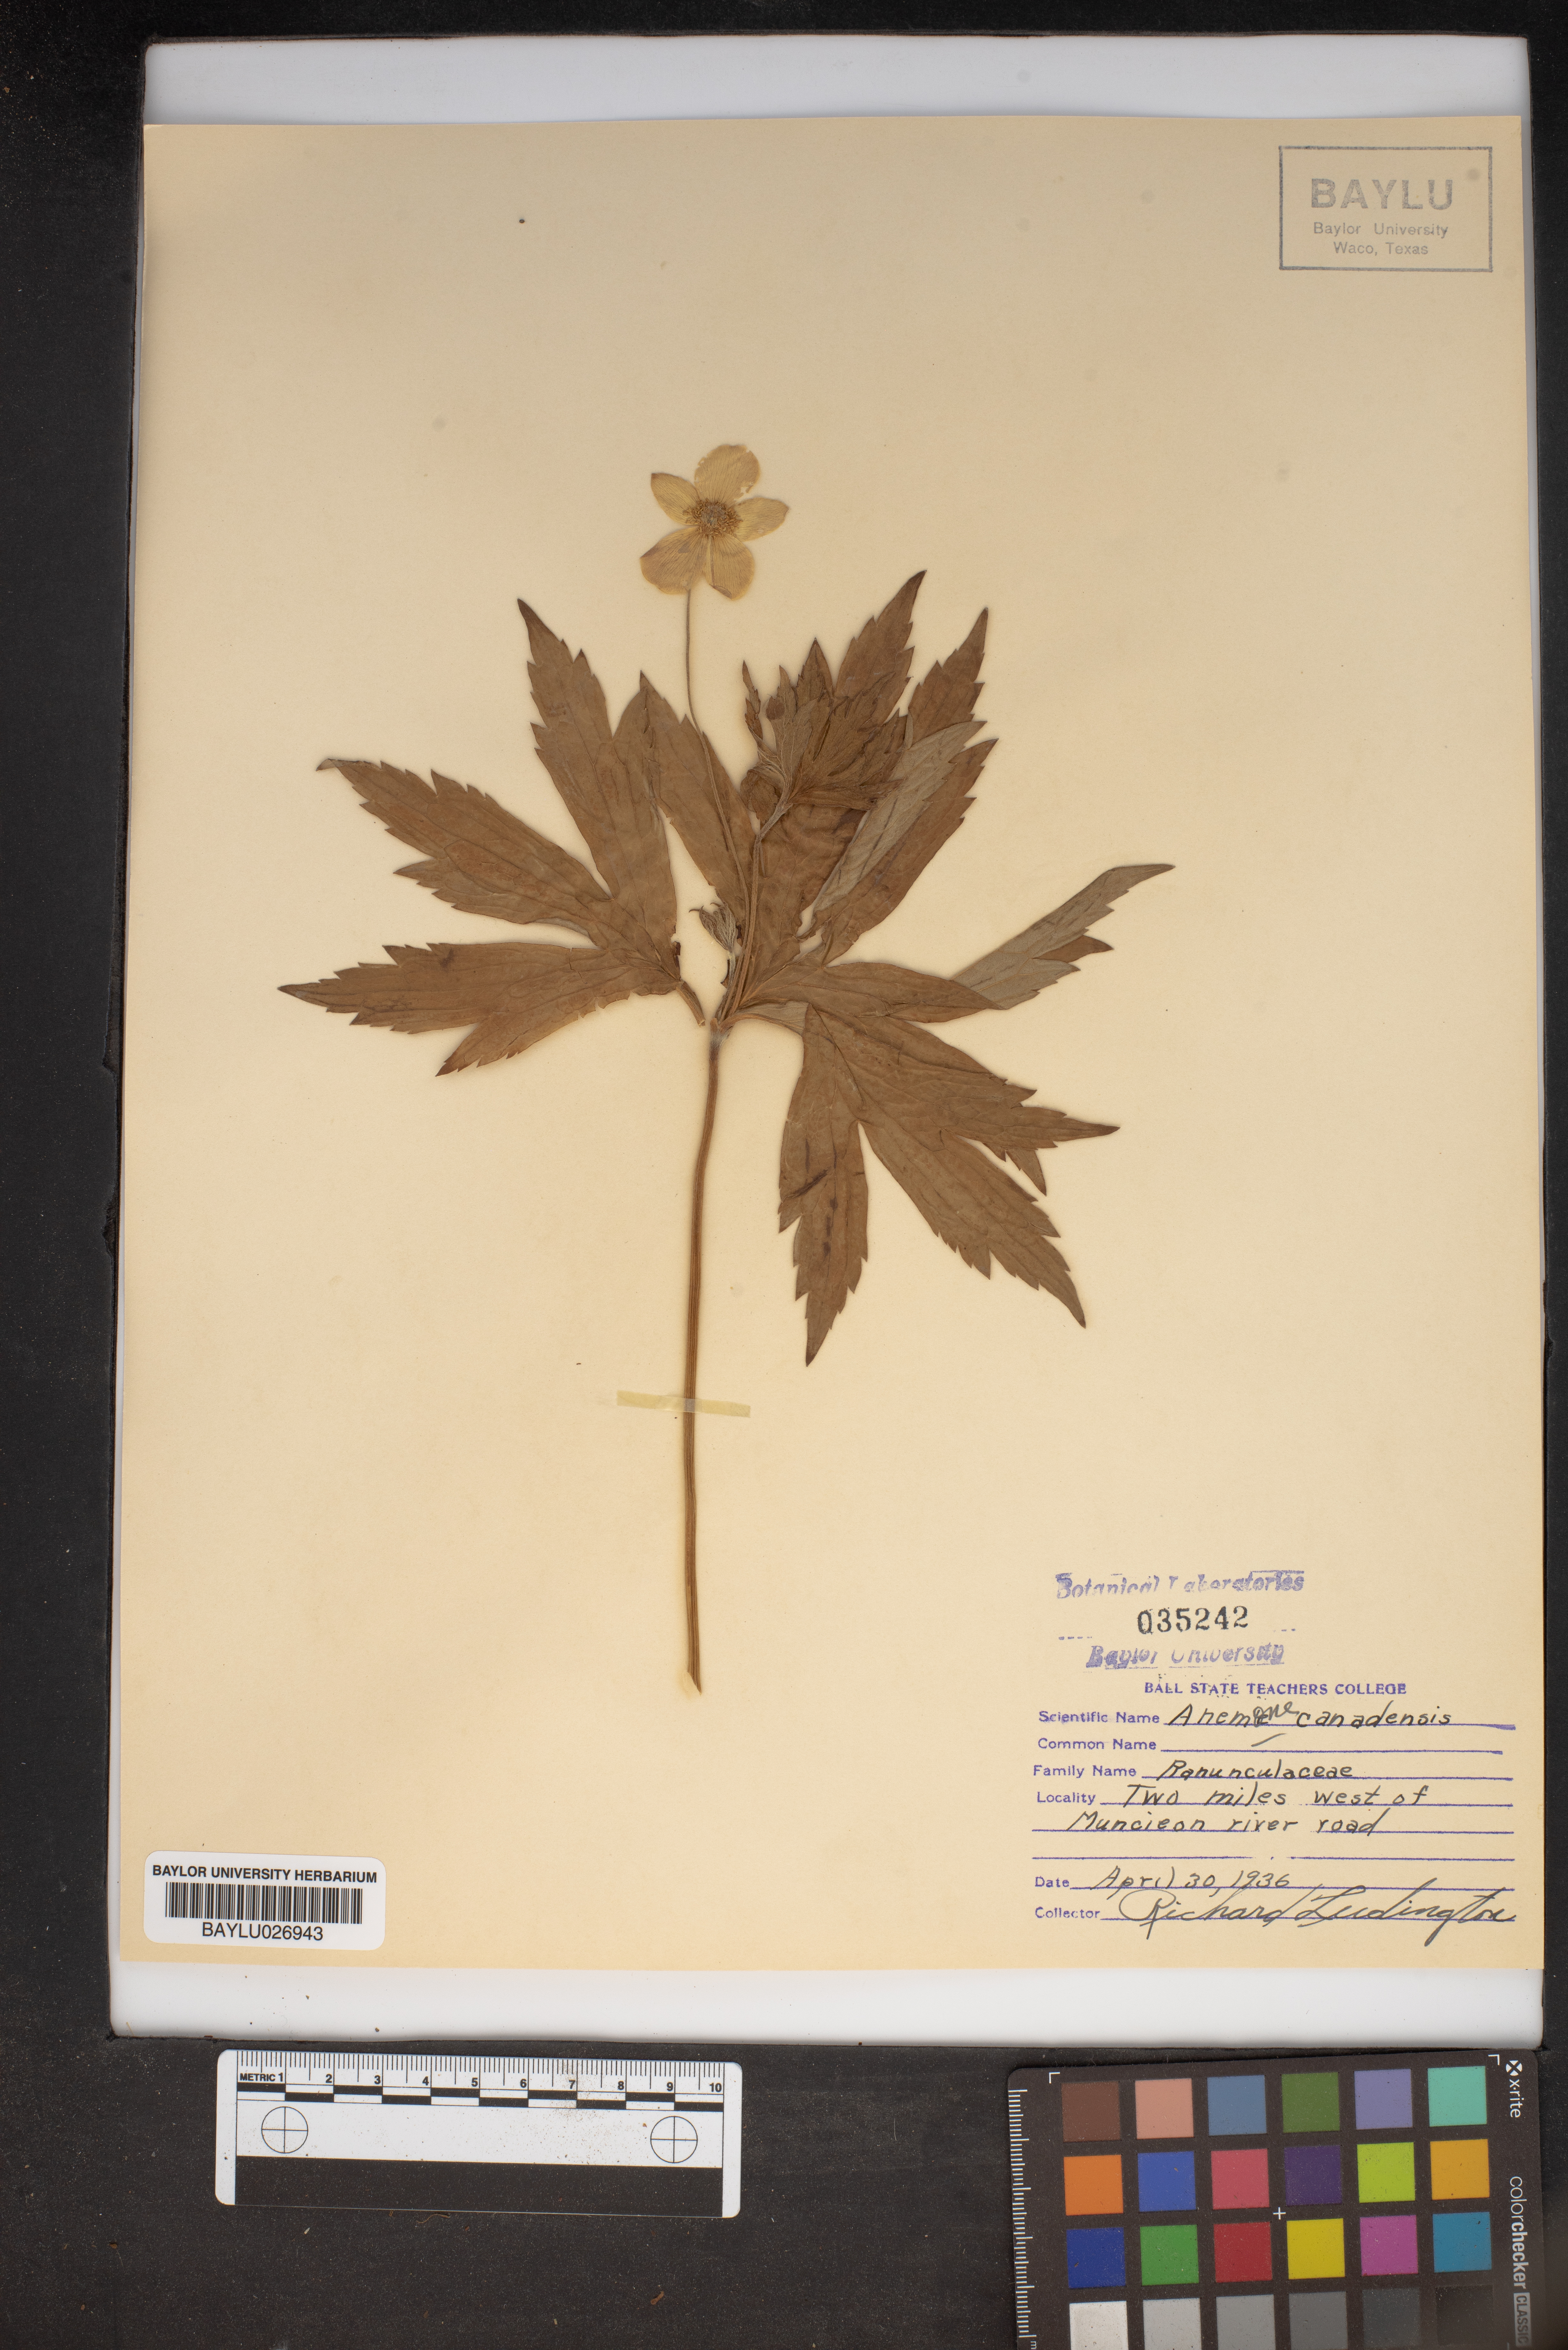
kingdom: Plantae
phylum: Tracheophyta
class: Magnoliopsida
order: Ranunculales
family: Ranunculaceae
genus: Anemonastrum
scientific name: Anemonastrum canadense
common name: Canada anemone
